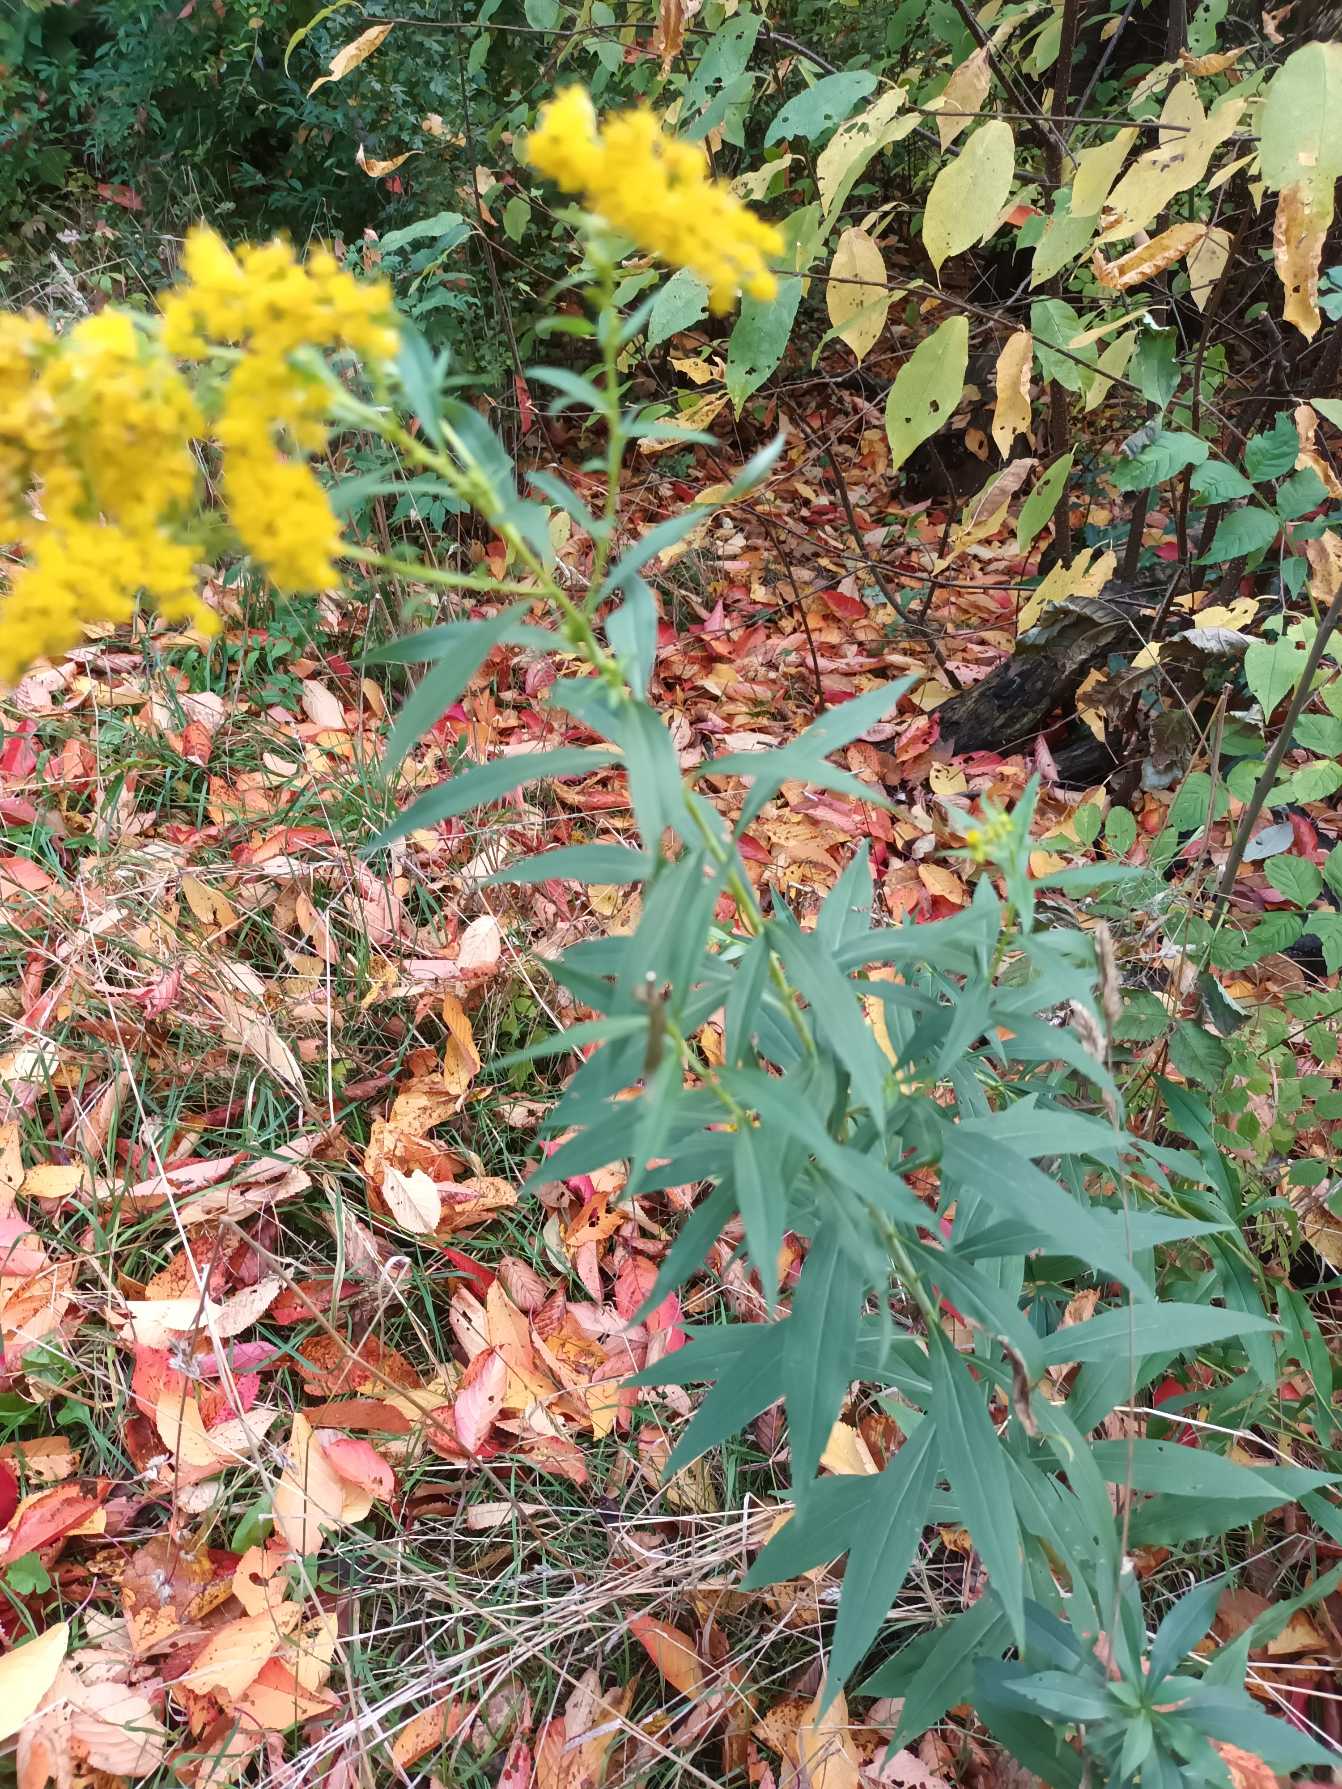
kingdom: Plantae
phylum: Tracheophyta
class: Magnoliopsida
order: Asterales
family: Asteraceae
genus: Solidago
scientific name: Solidago gigantea
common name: Sildig gyldenris
